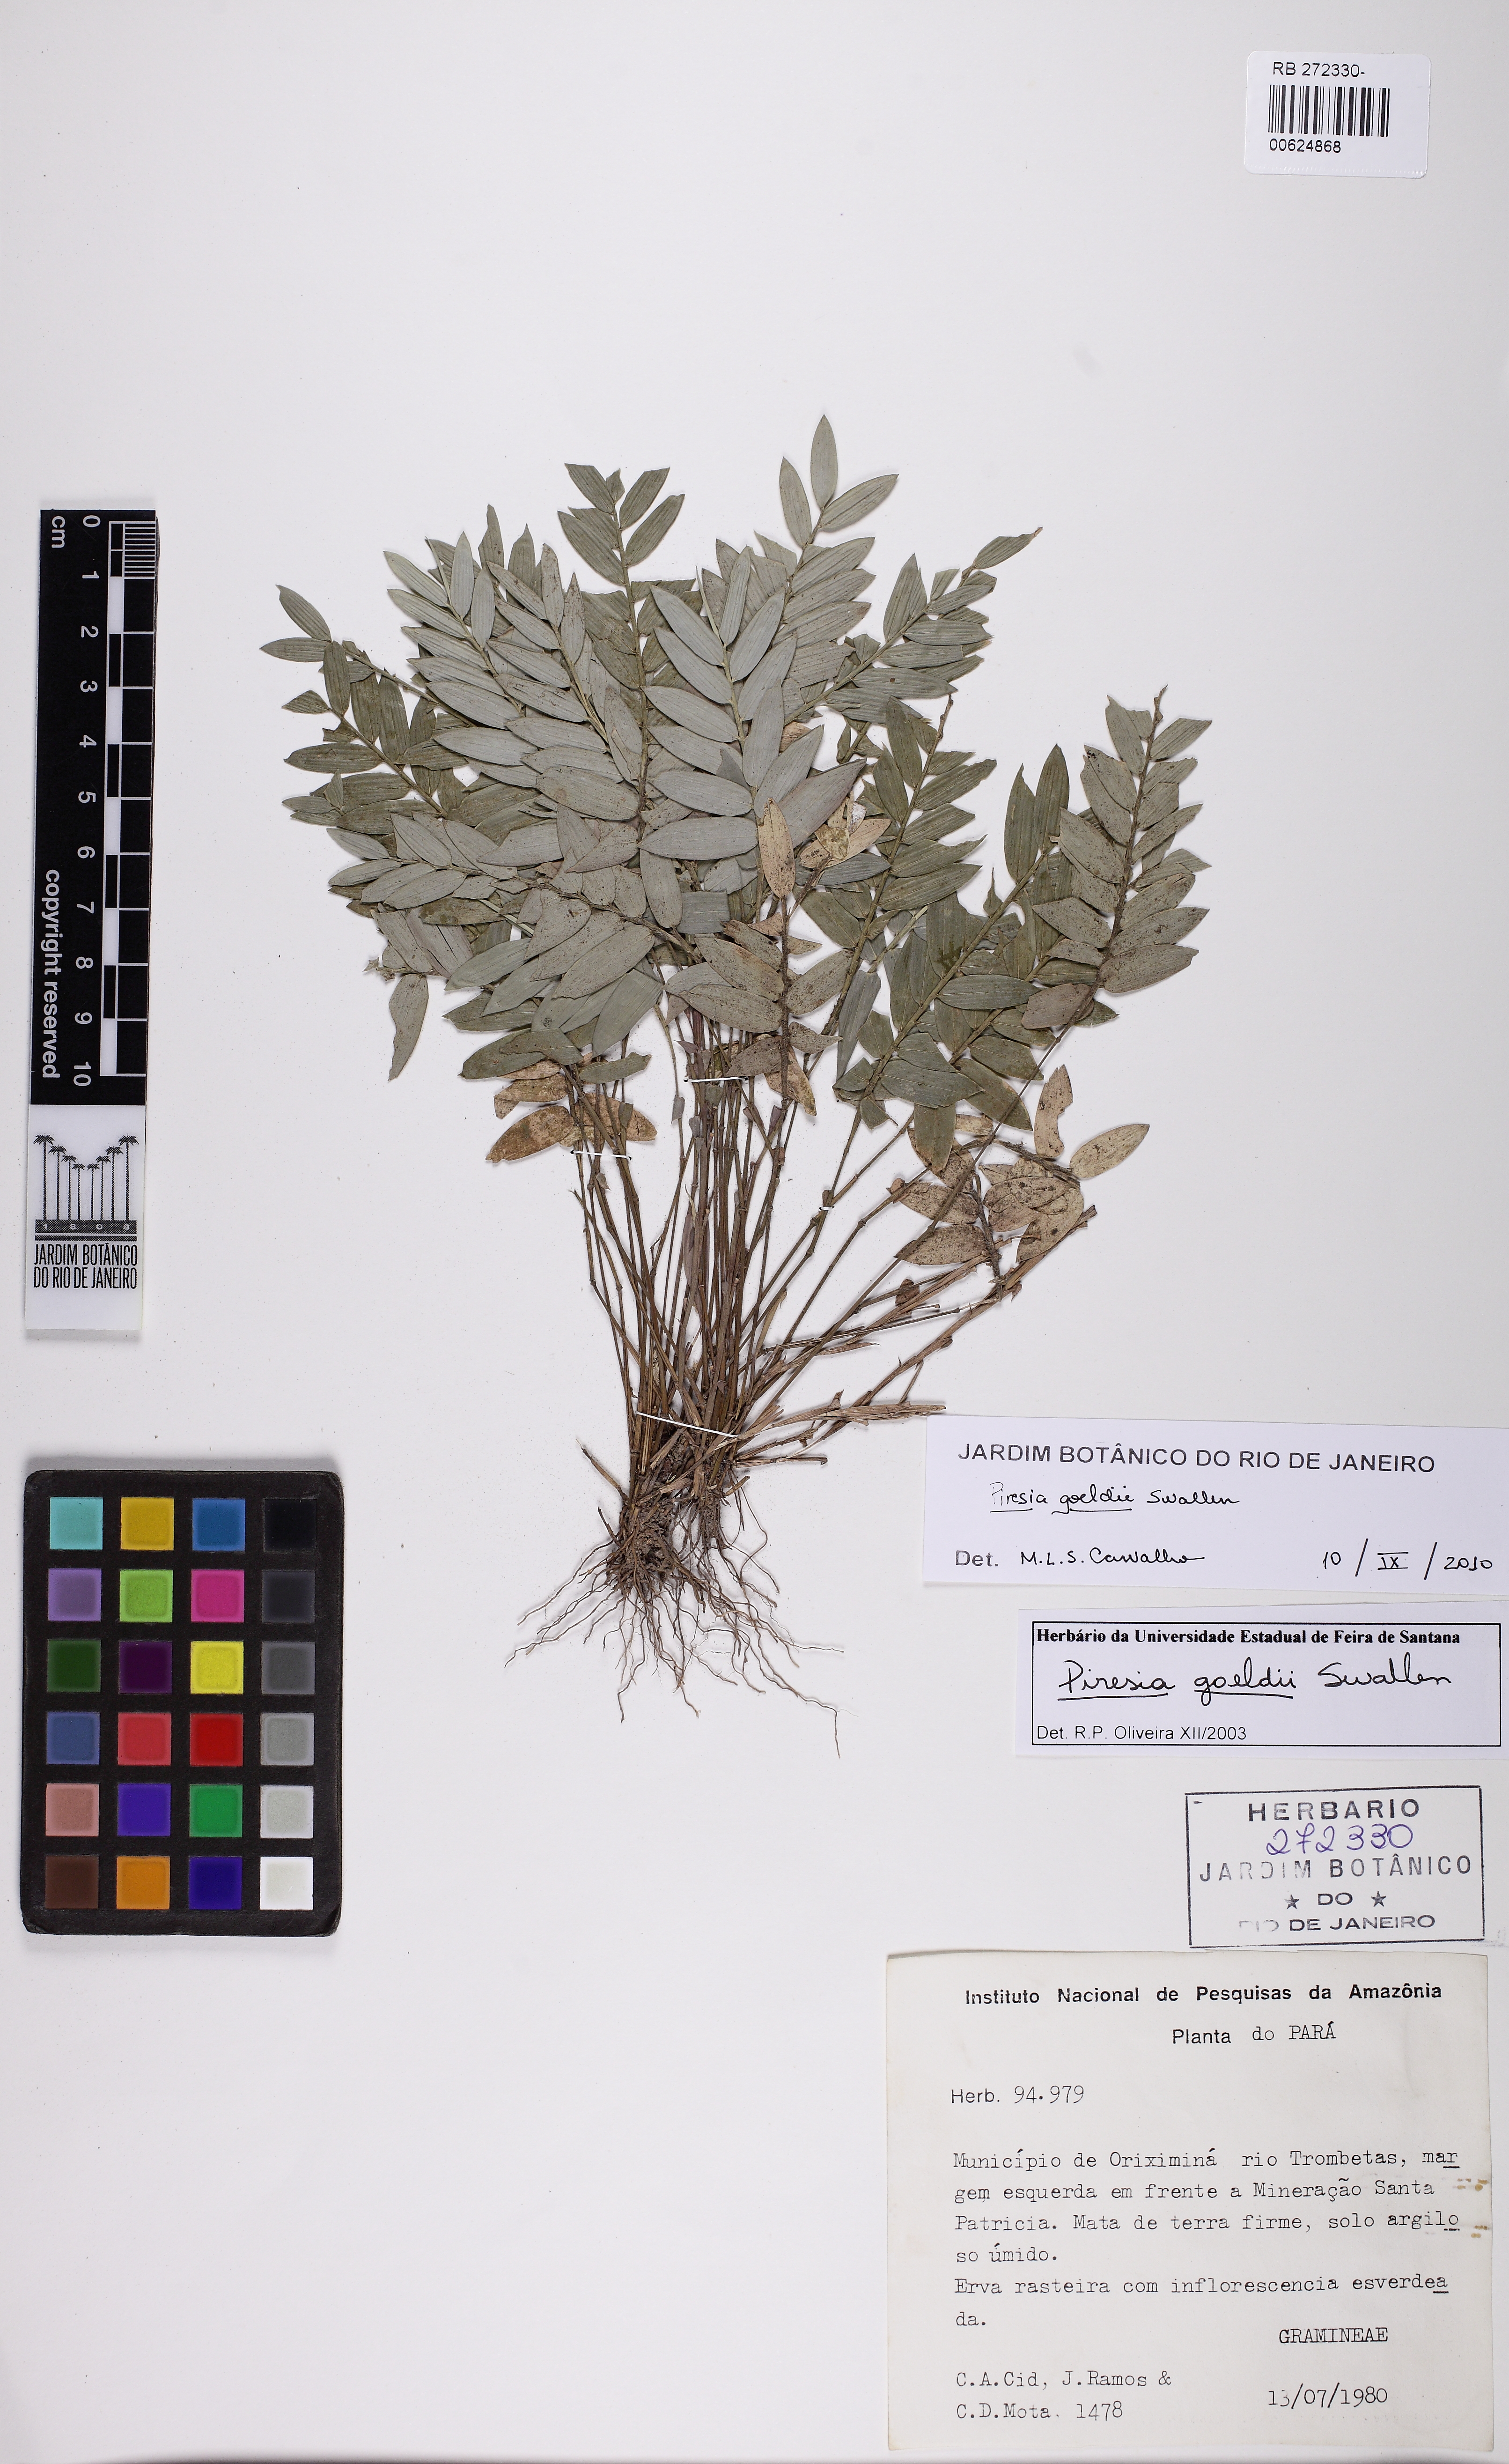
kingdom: Plantae
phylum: Tracheophyta
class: Liliopsida
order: Poales
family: Poaceae
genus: Piresia
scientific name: Piresia goeldii
